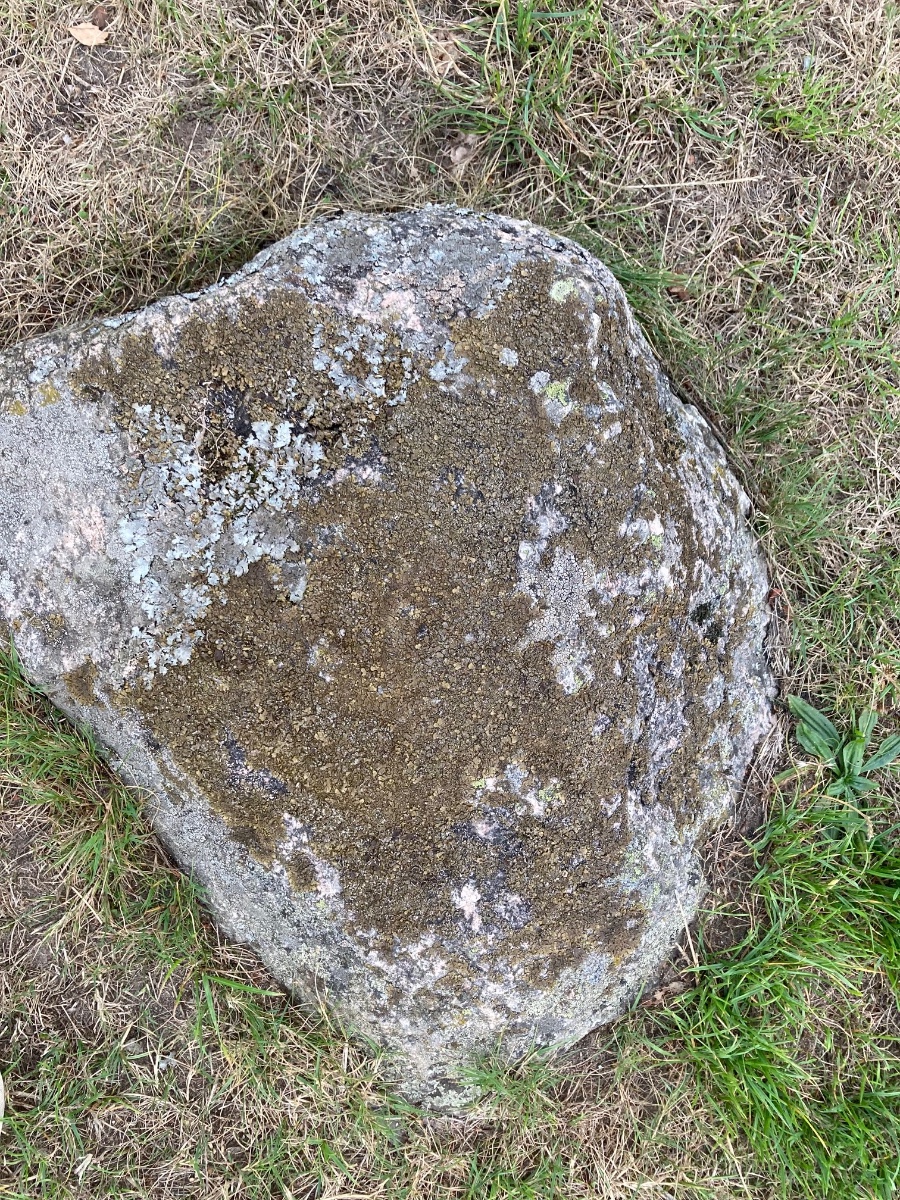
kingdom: Fungi
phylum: Ascomycota
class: Lecanoromycetes
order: Lecanorales
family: Parmeliaceae
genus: Xanthoparmelia
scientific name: Xanthoparmelia verruculifera
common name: småknoppet skållav
